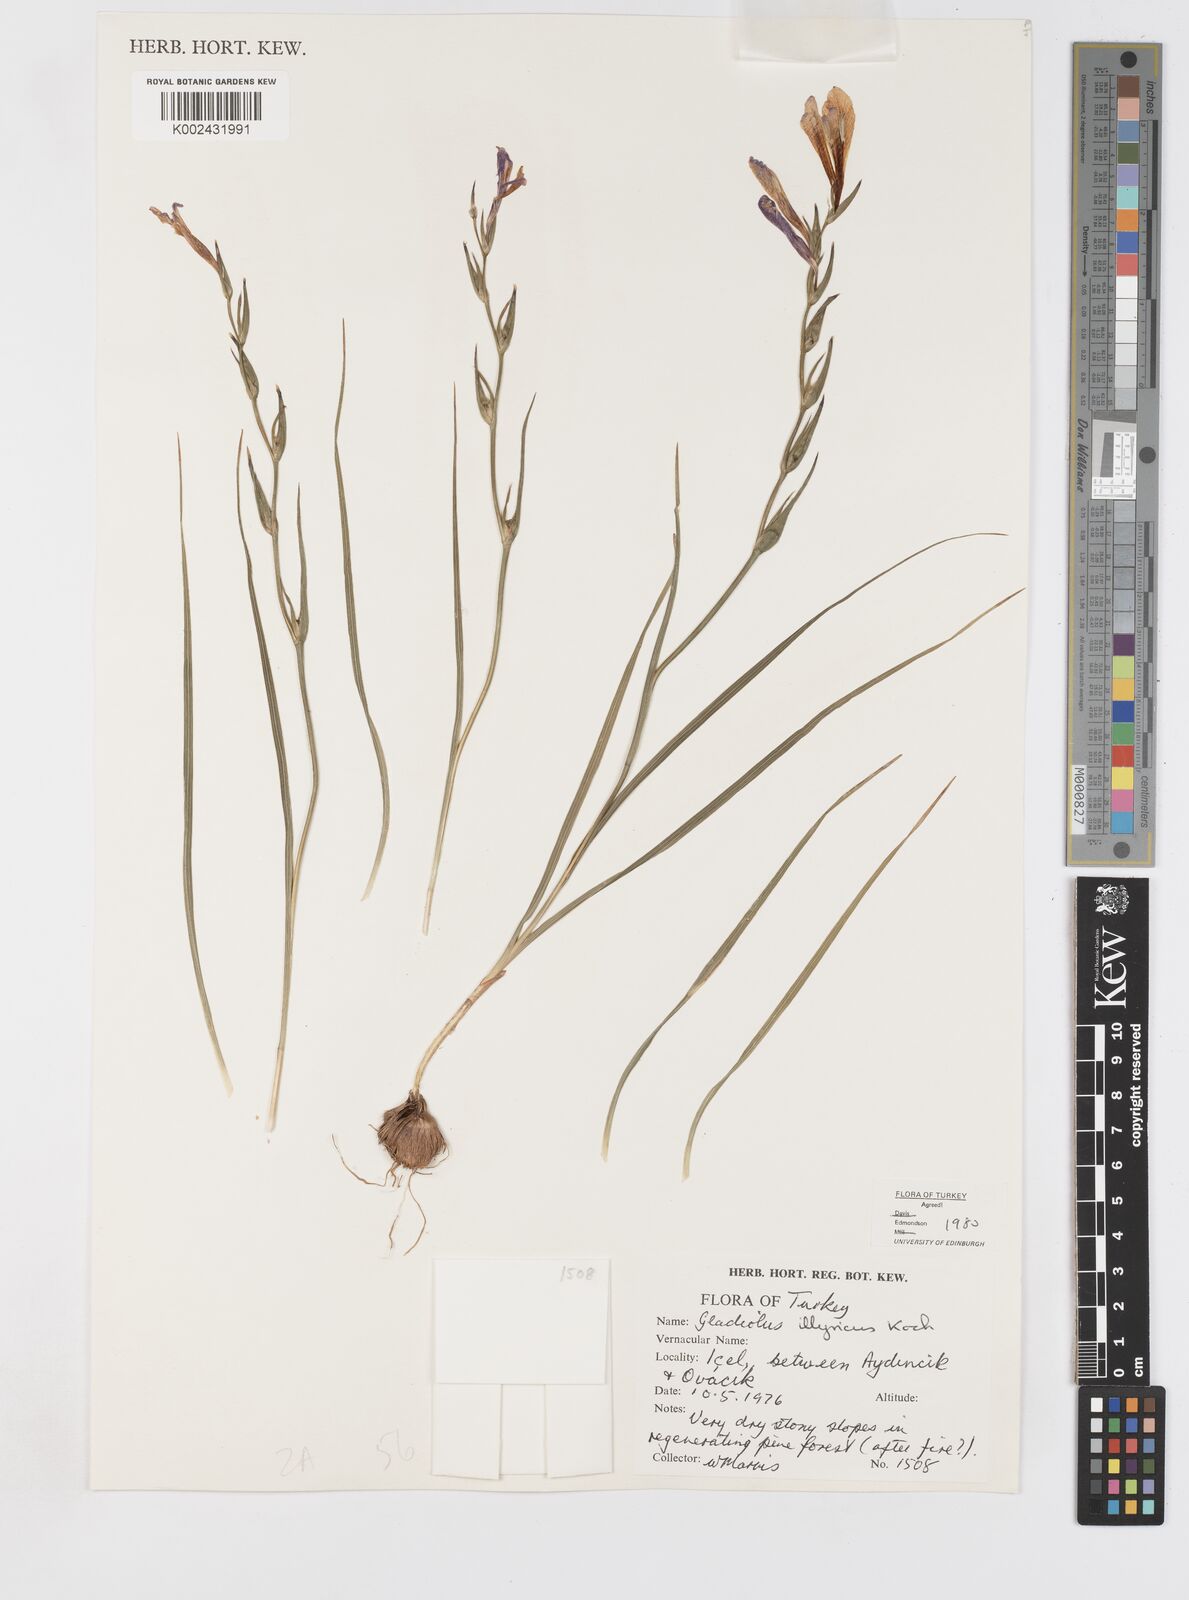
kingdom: Plantae
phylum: Tracheophyta
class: Liliopsida
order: Asparagales
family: Iridaceae
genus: Gladiolus
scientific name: Gladiolus illyricus
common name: Wild gladiolus
